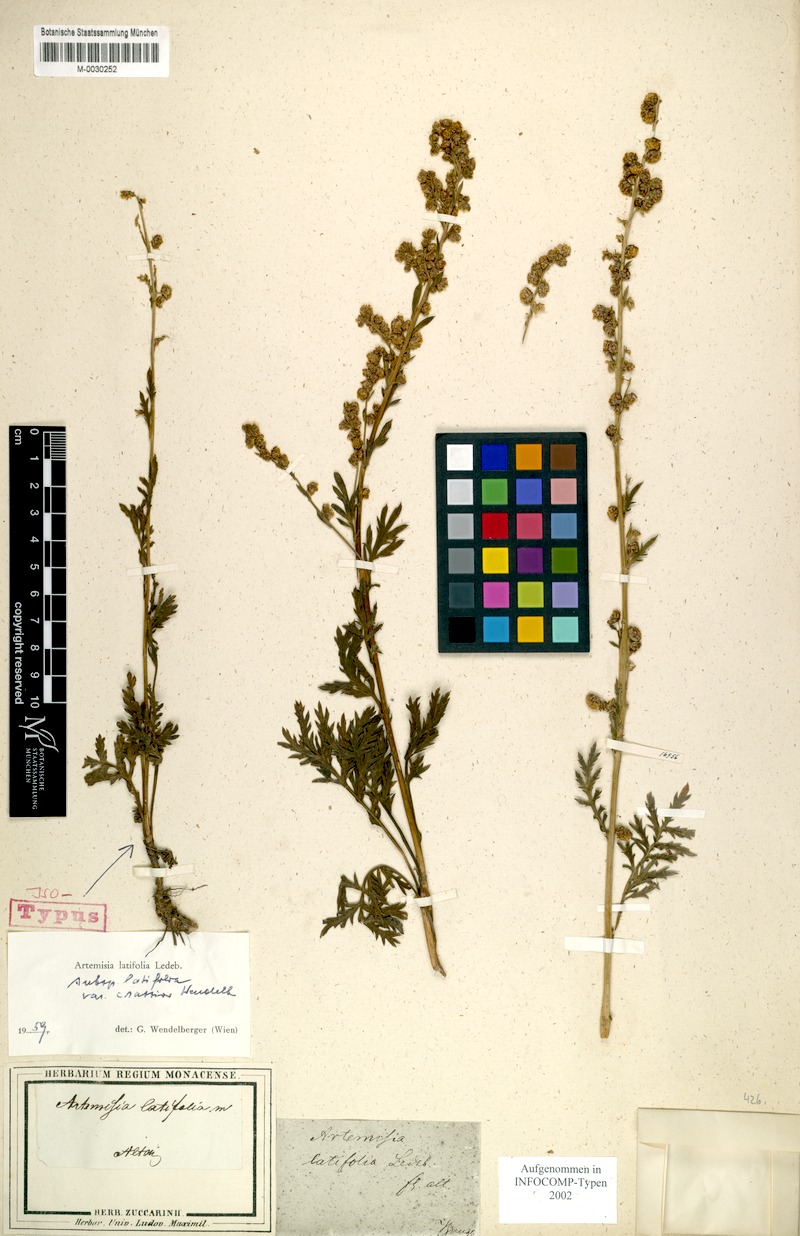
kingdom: Plantae
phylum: Tracheophyta
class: Magnoliopsida
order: Asterales
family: Asteraceae
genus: Artemisia
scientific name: Artemisia latifolia
